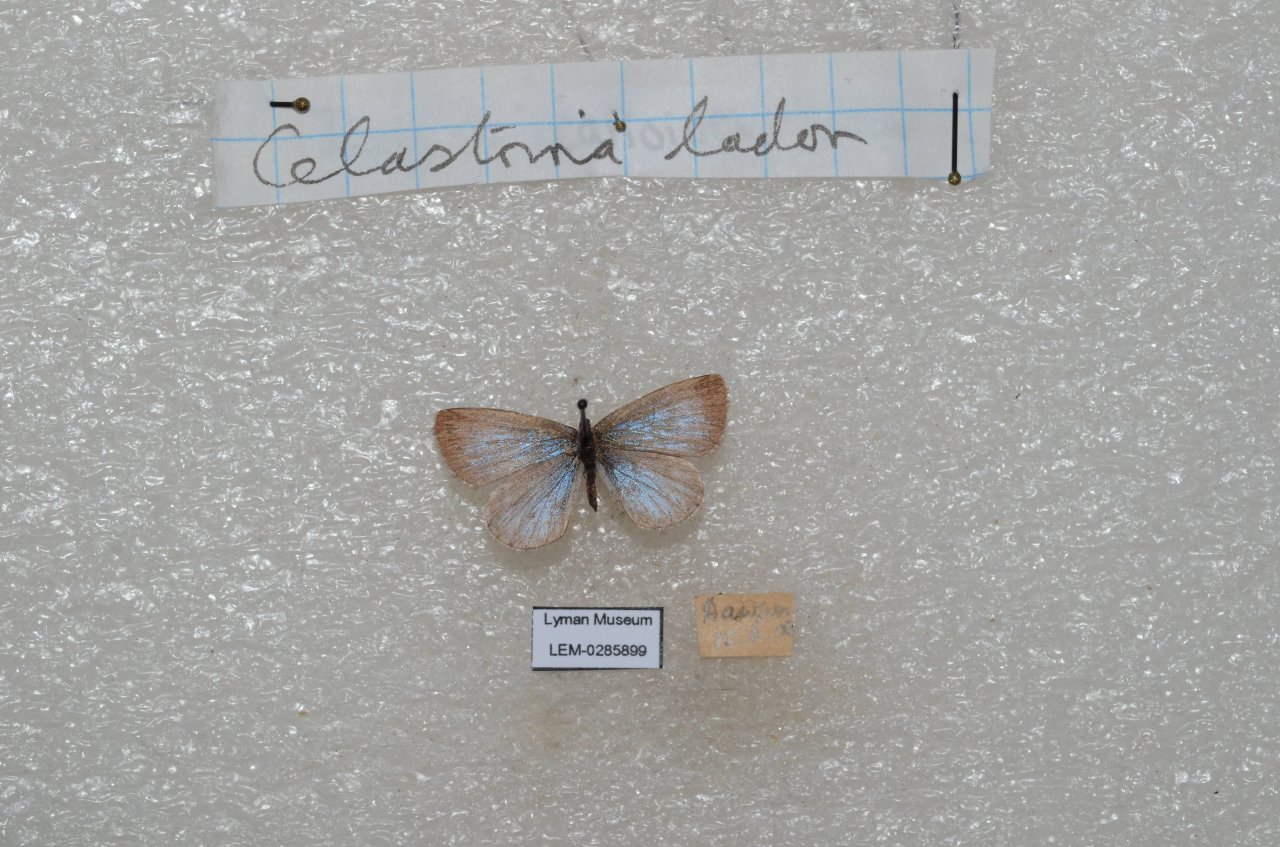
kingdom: Animalia
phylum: Arthropoda
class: Insecta
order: Lepidoptera
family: Lycaenidae
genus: Celastrina
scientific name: Celastrina lucia
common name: Northern Spring Azure
